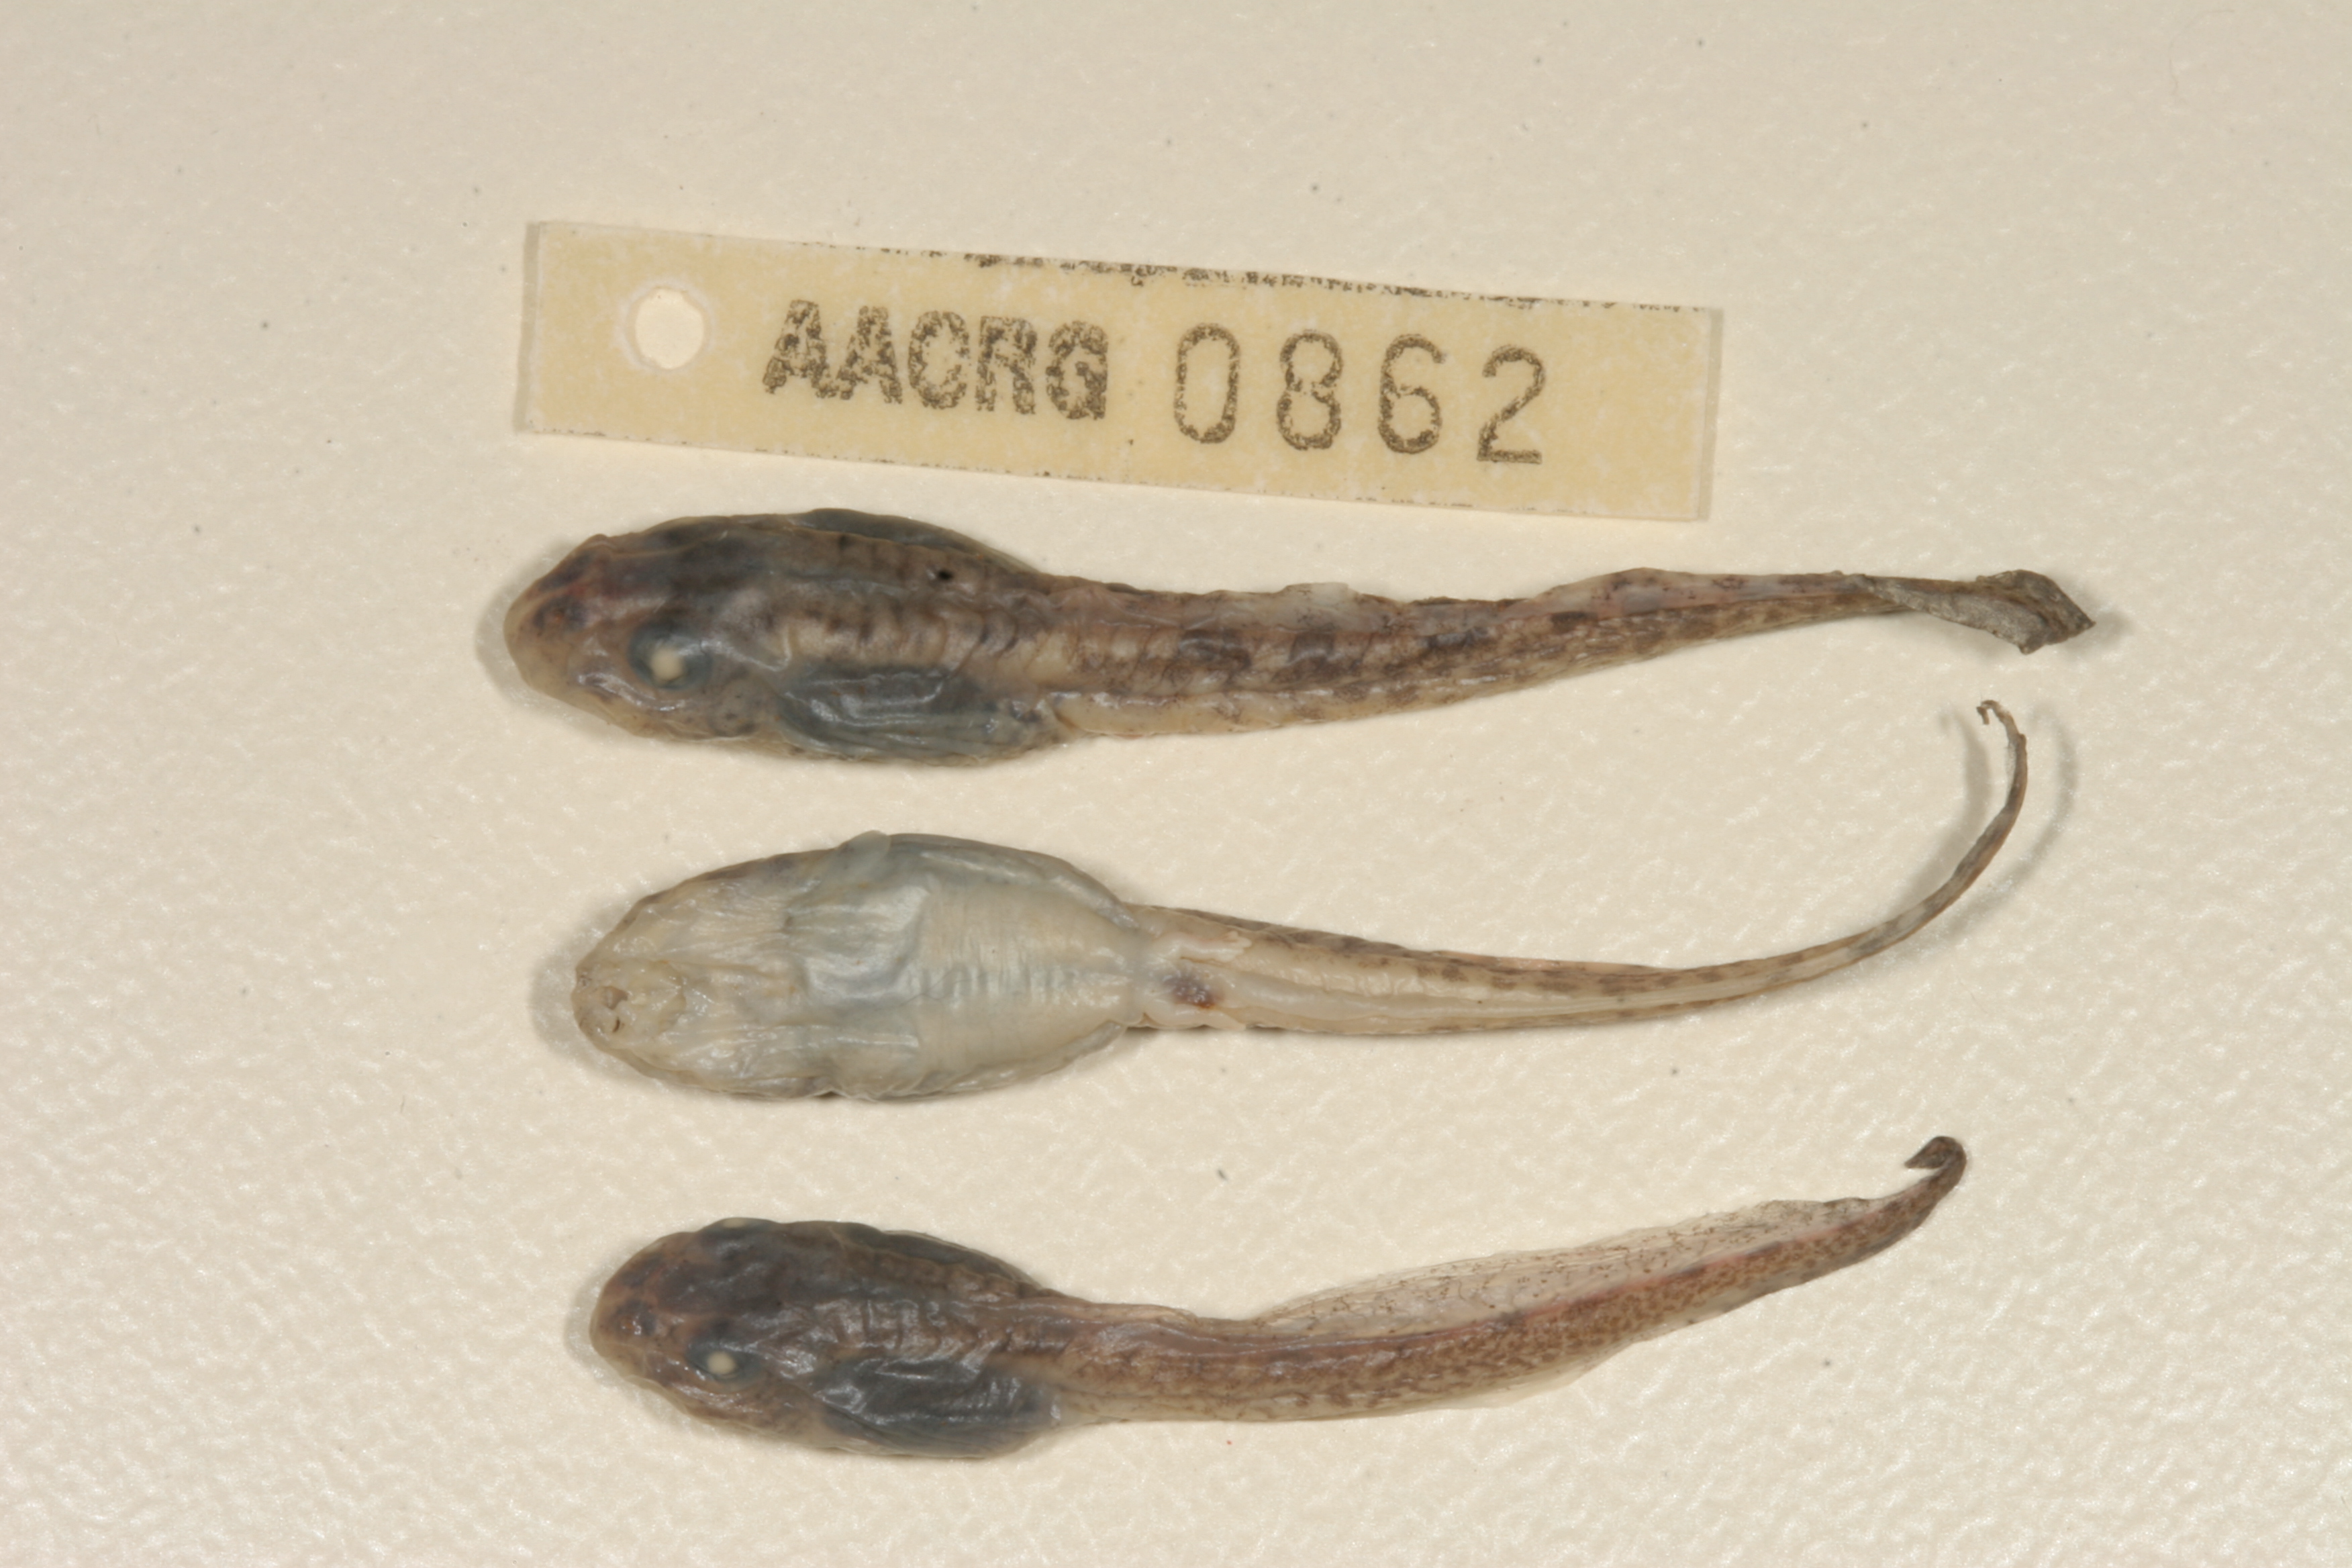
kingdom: Animalia
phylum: Chordata
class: Amphibia
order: Anura
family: Pyxicephalidae
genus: Amietia
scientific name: Amietia angolensis
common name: Dusky-throated frog
